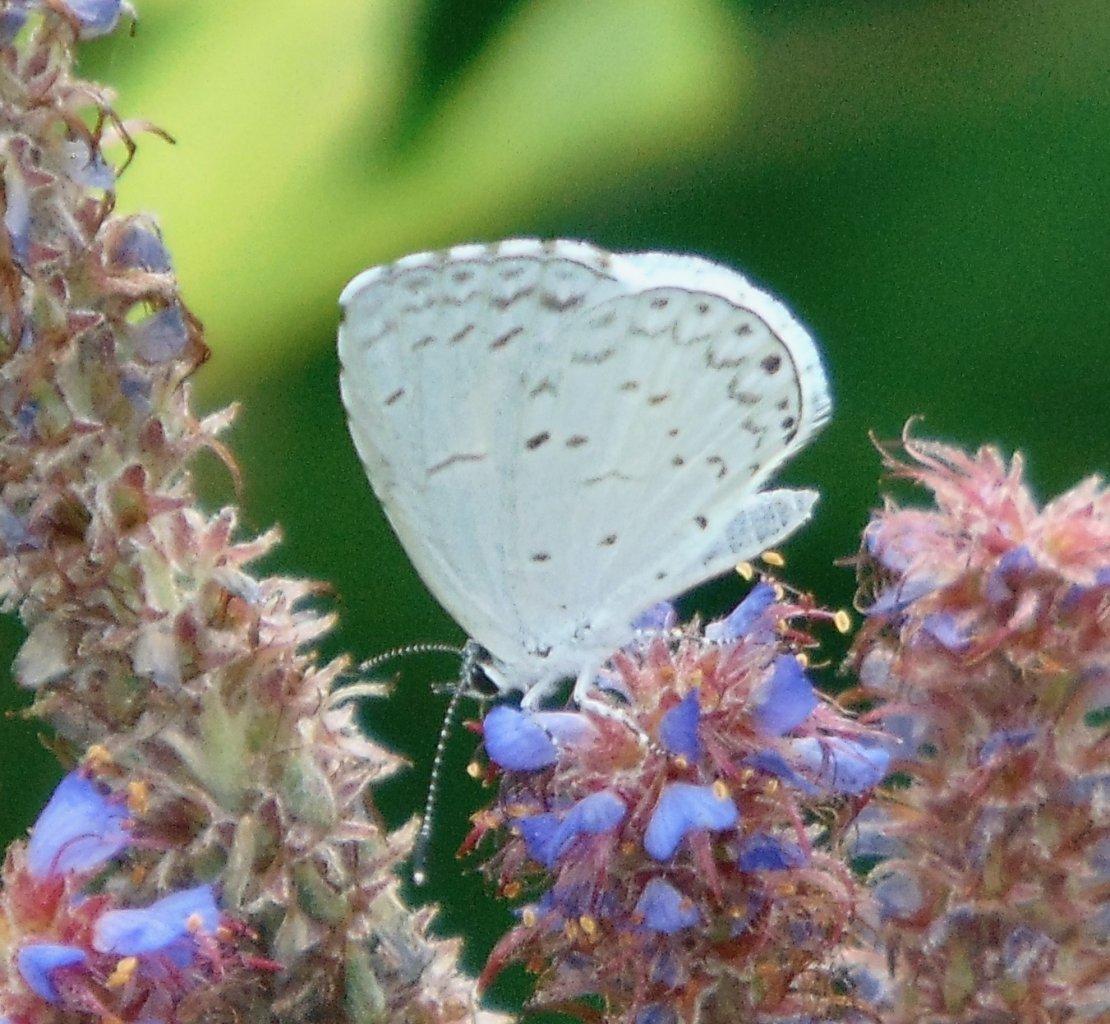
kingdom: Animalia
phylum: Arthropoda
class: Insecta
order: Lepidoptera
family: Lycaenidae
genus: Cyaniris
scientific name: Cyaniris neglecta
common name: Summer Azure
